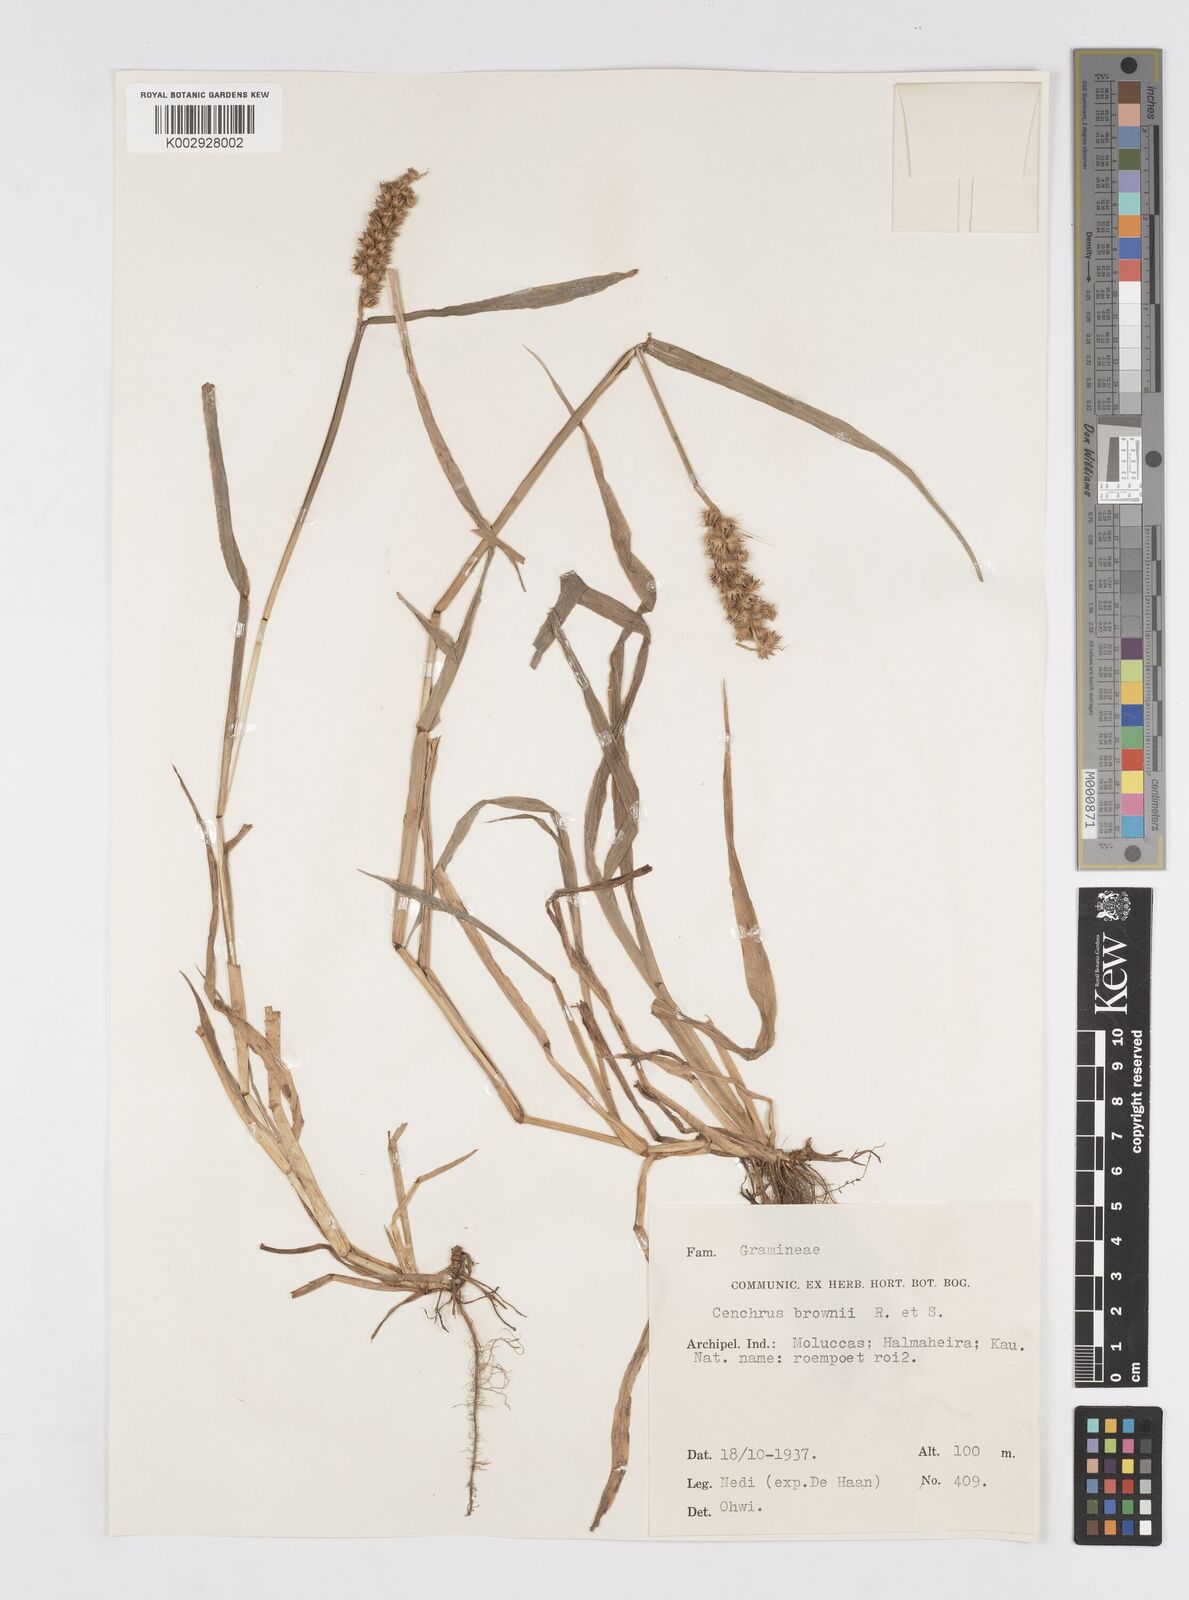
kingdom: Plantae
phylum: Tracheophyta
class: Liliopsida
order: Poales
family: Poaceae
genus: Cenchrus
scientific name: Cenchrus brownii
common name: Slim-bristle sandbur
